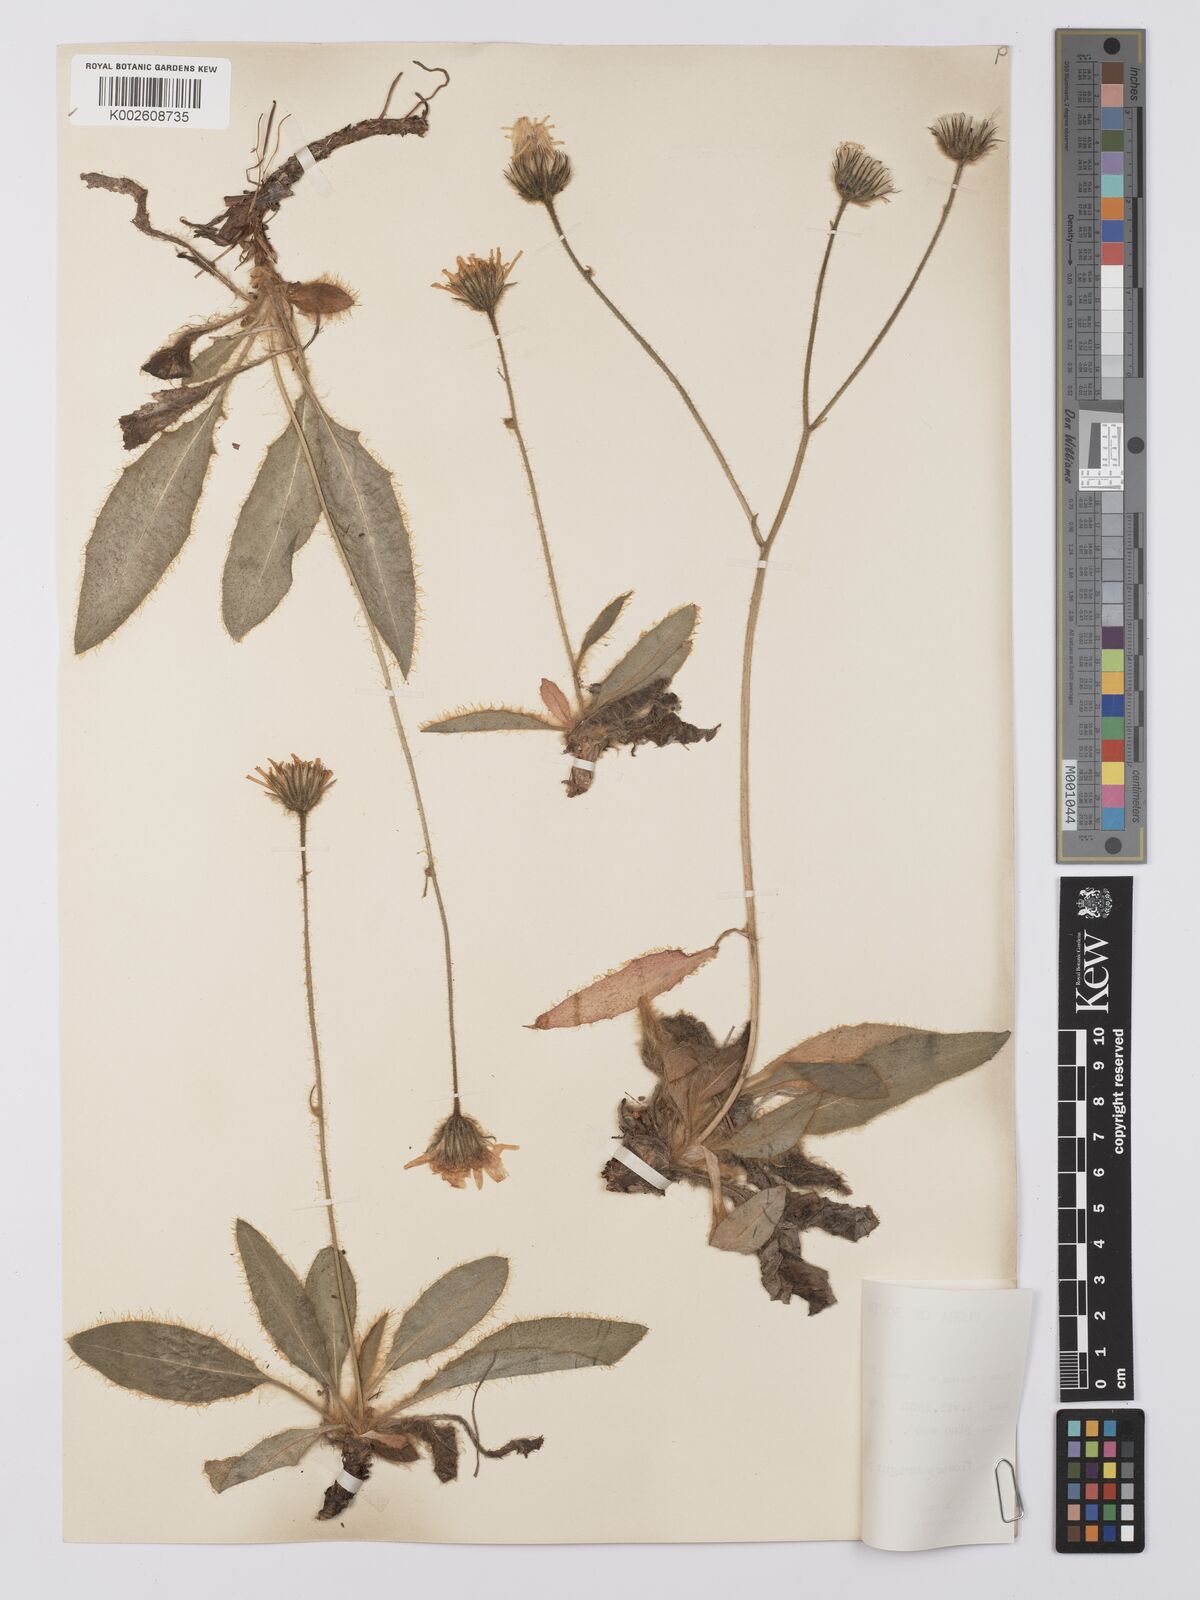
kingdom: Plantae
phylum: Tracheophyta
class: Magnoliopsida
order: Asterales
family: Asteraceae
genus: Hieracium
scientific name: Hieracium sartorianum
